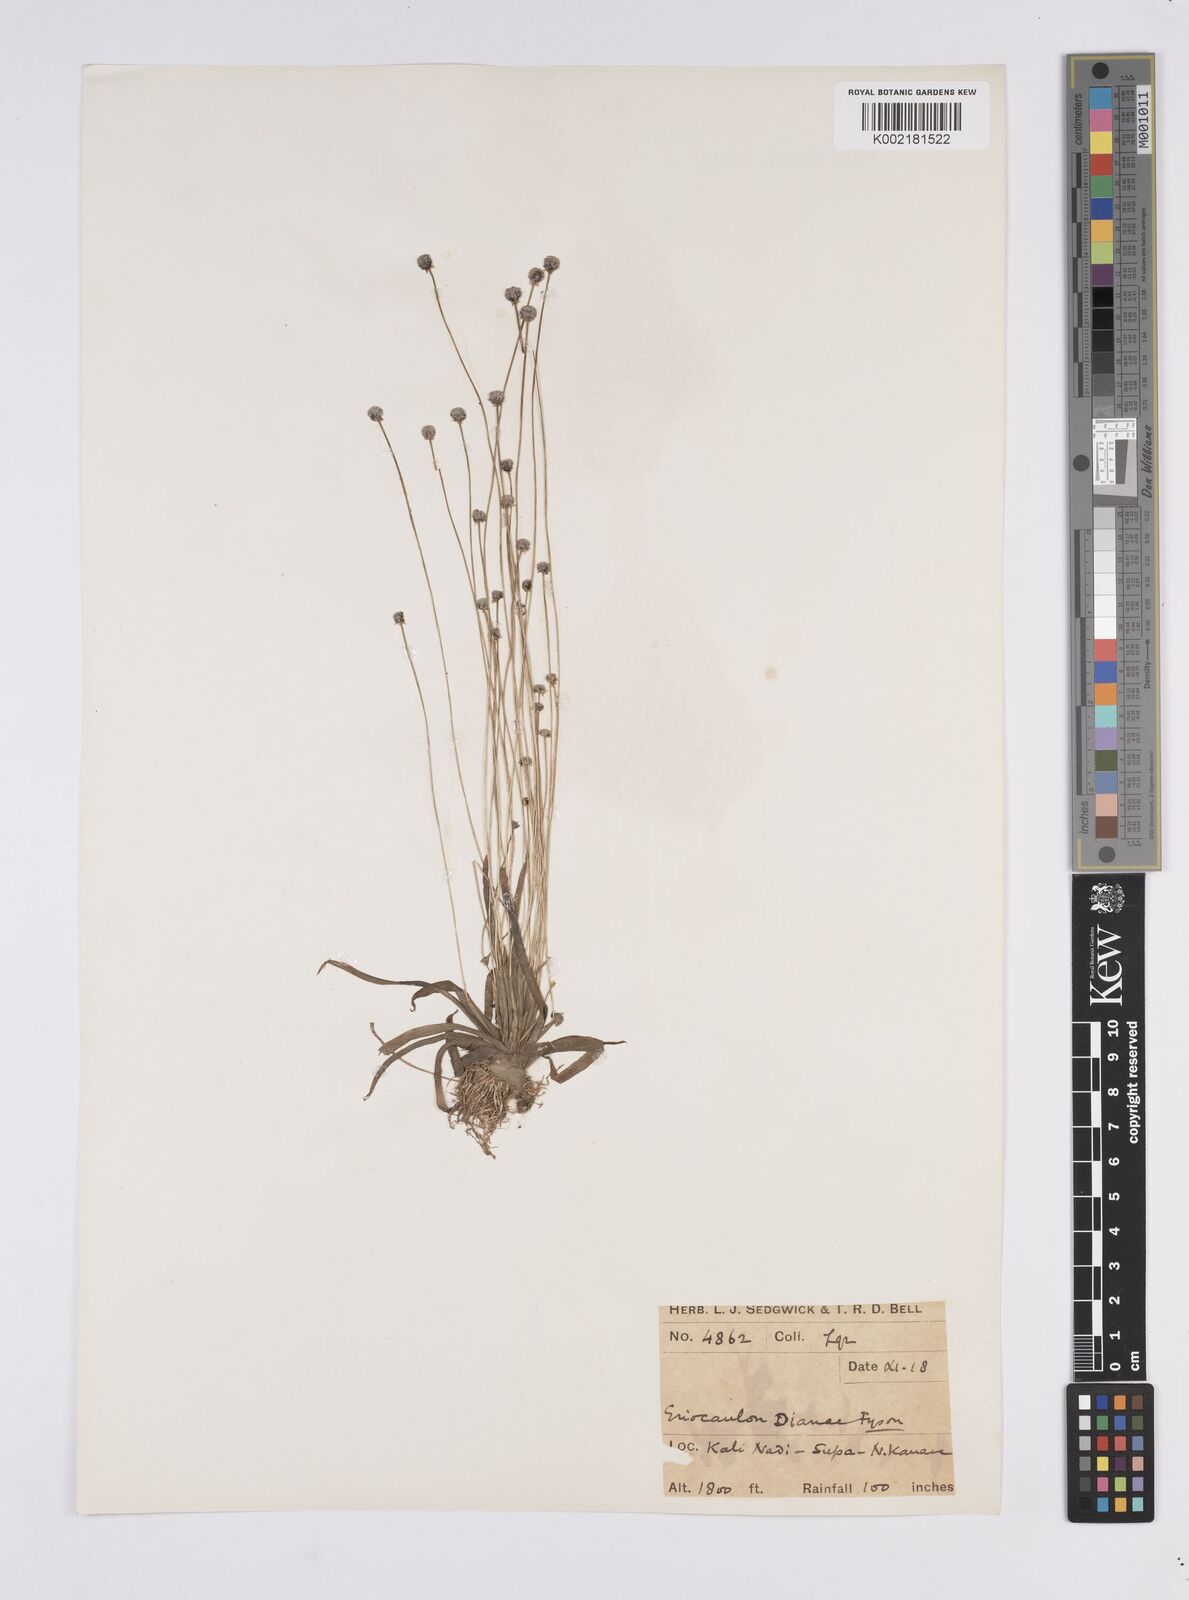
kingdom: Plantae
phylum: Tracheophyta
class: Liliopsida
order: Poales
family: Eriocaulaceae
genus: Eriocaulon
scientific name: Eriocaulon heterolepis
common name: Buttonhead pipewort
